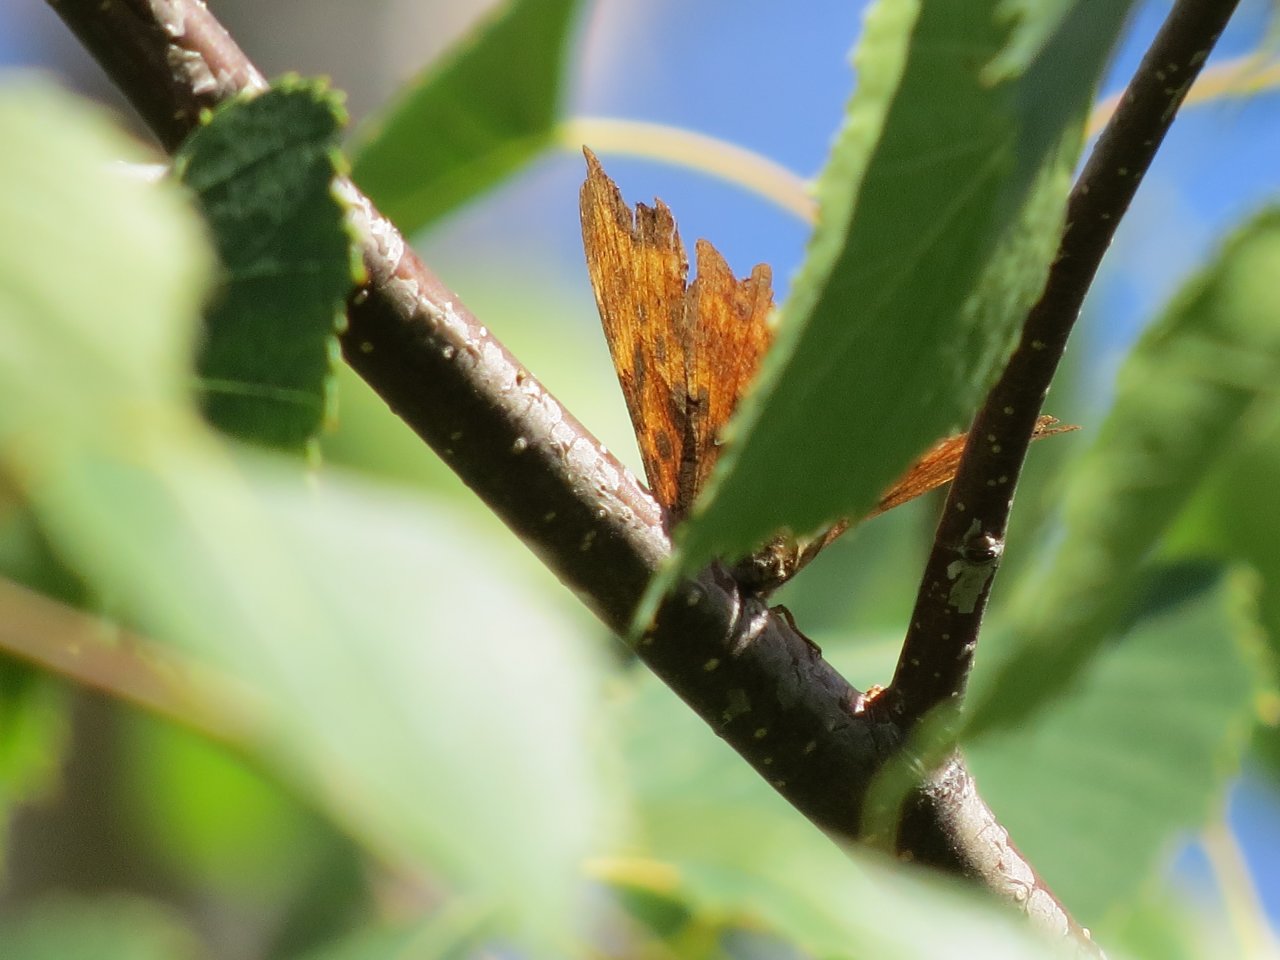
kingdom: Animalia
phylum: Arthropoda
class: Insecta
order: Lepidoptera
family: Nymphalidae
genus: Polygonia
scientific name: Polygonia satyrus
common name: Satyr Comma
